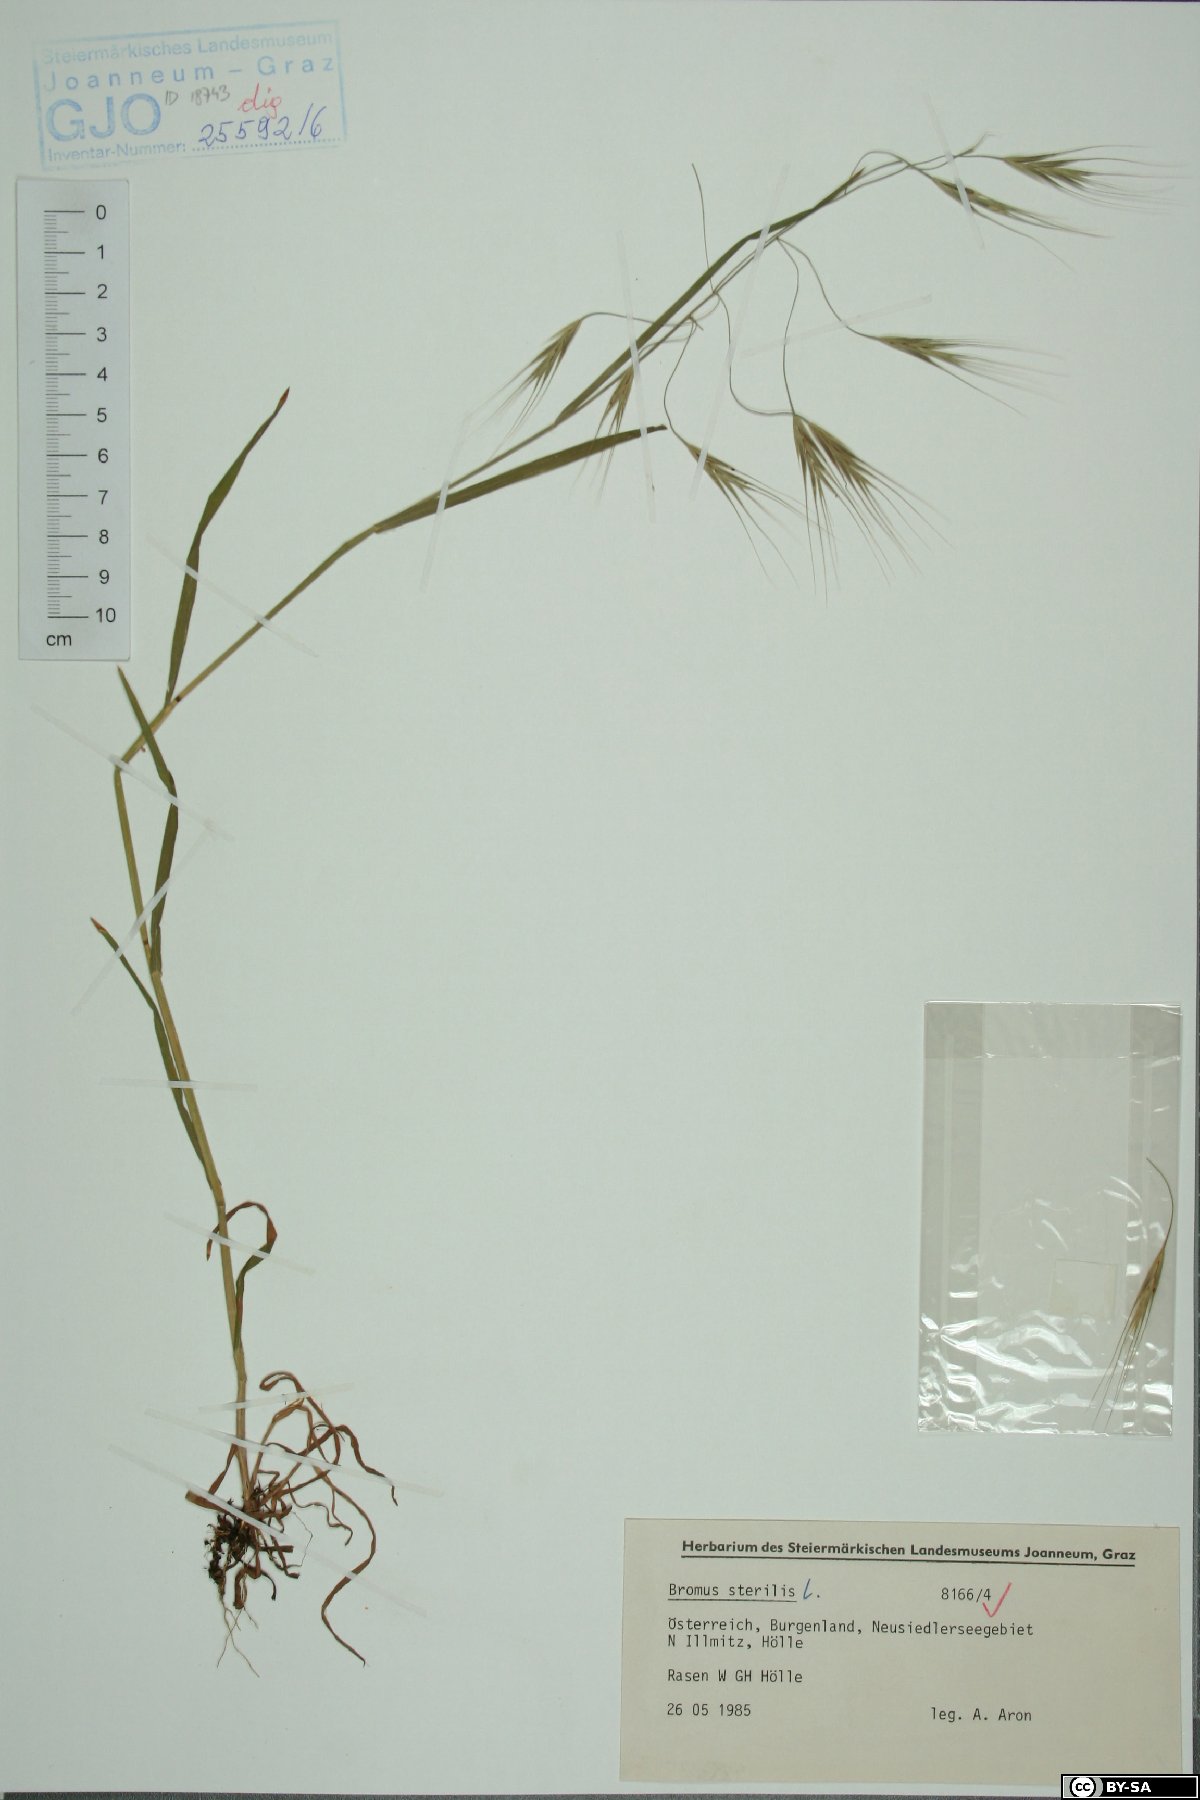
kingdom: Plantae
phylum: Tracheophyta
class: Liliopsida
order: Poales
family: Poaceae
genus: Bromus
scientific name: Bromus sterilis
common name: Poverty brome
